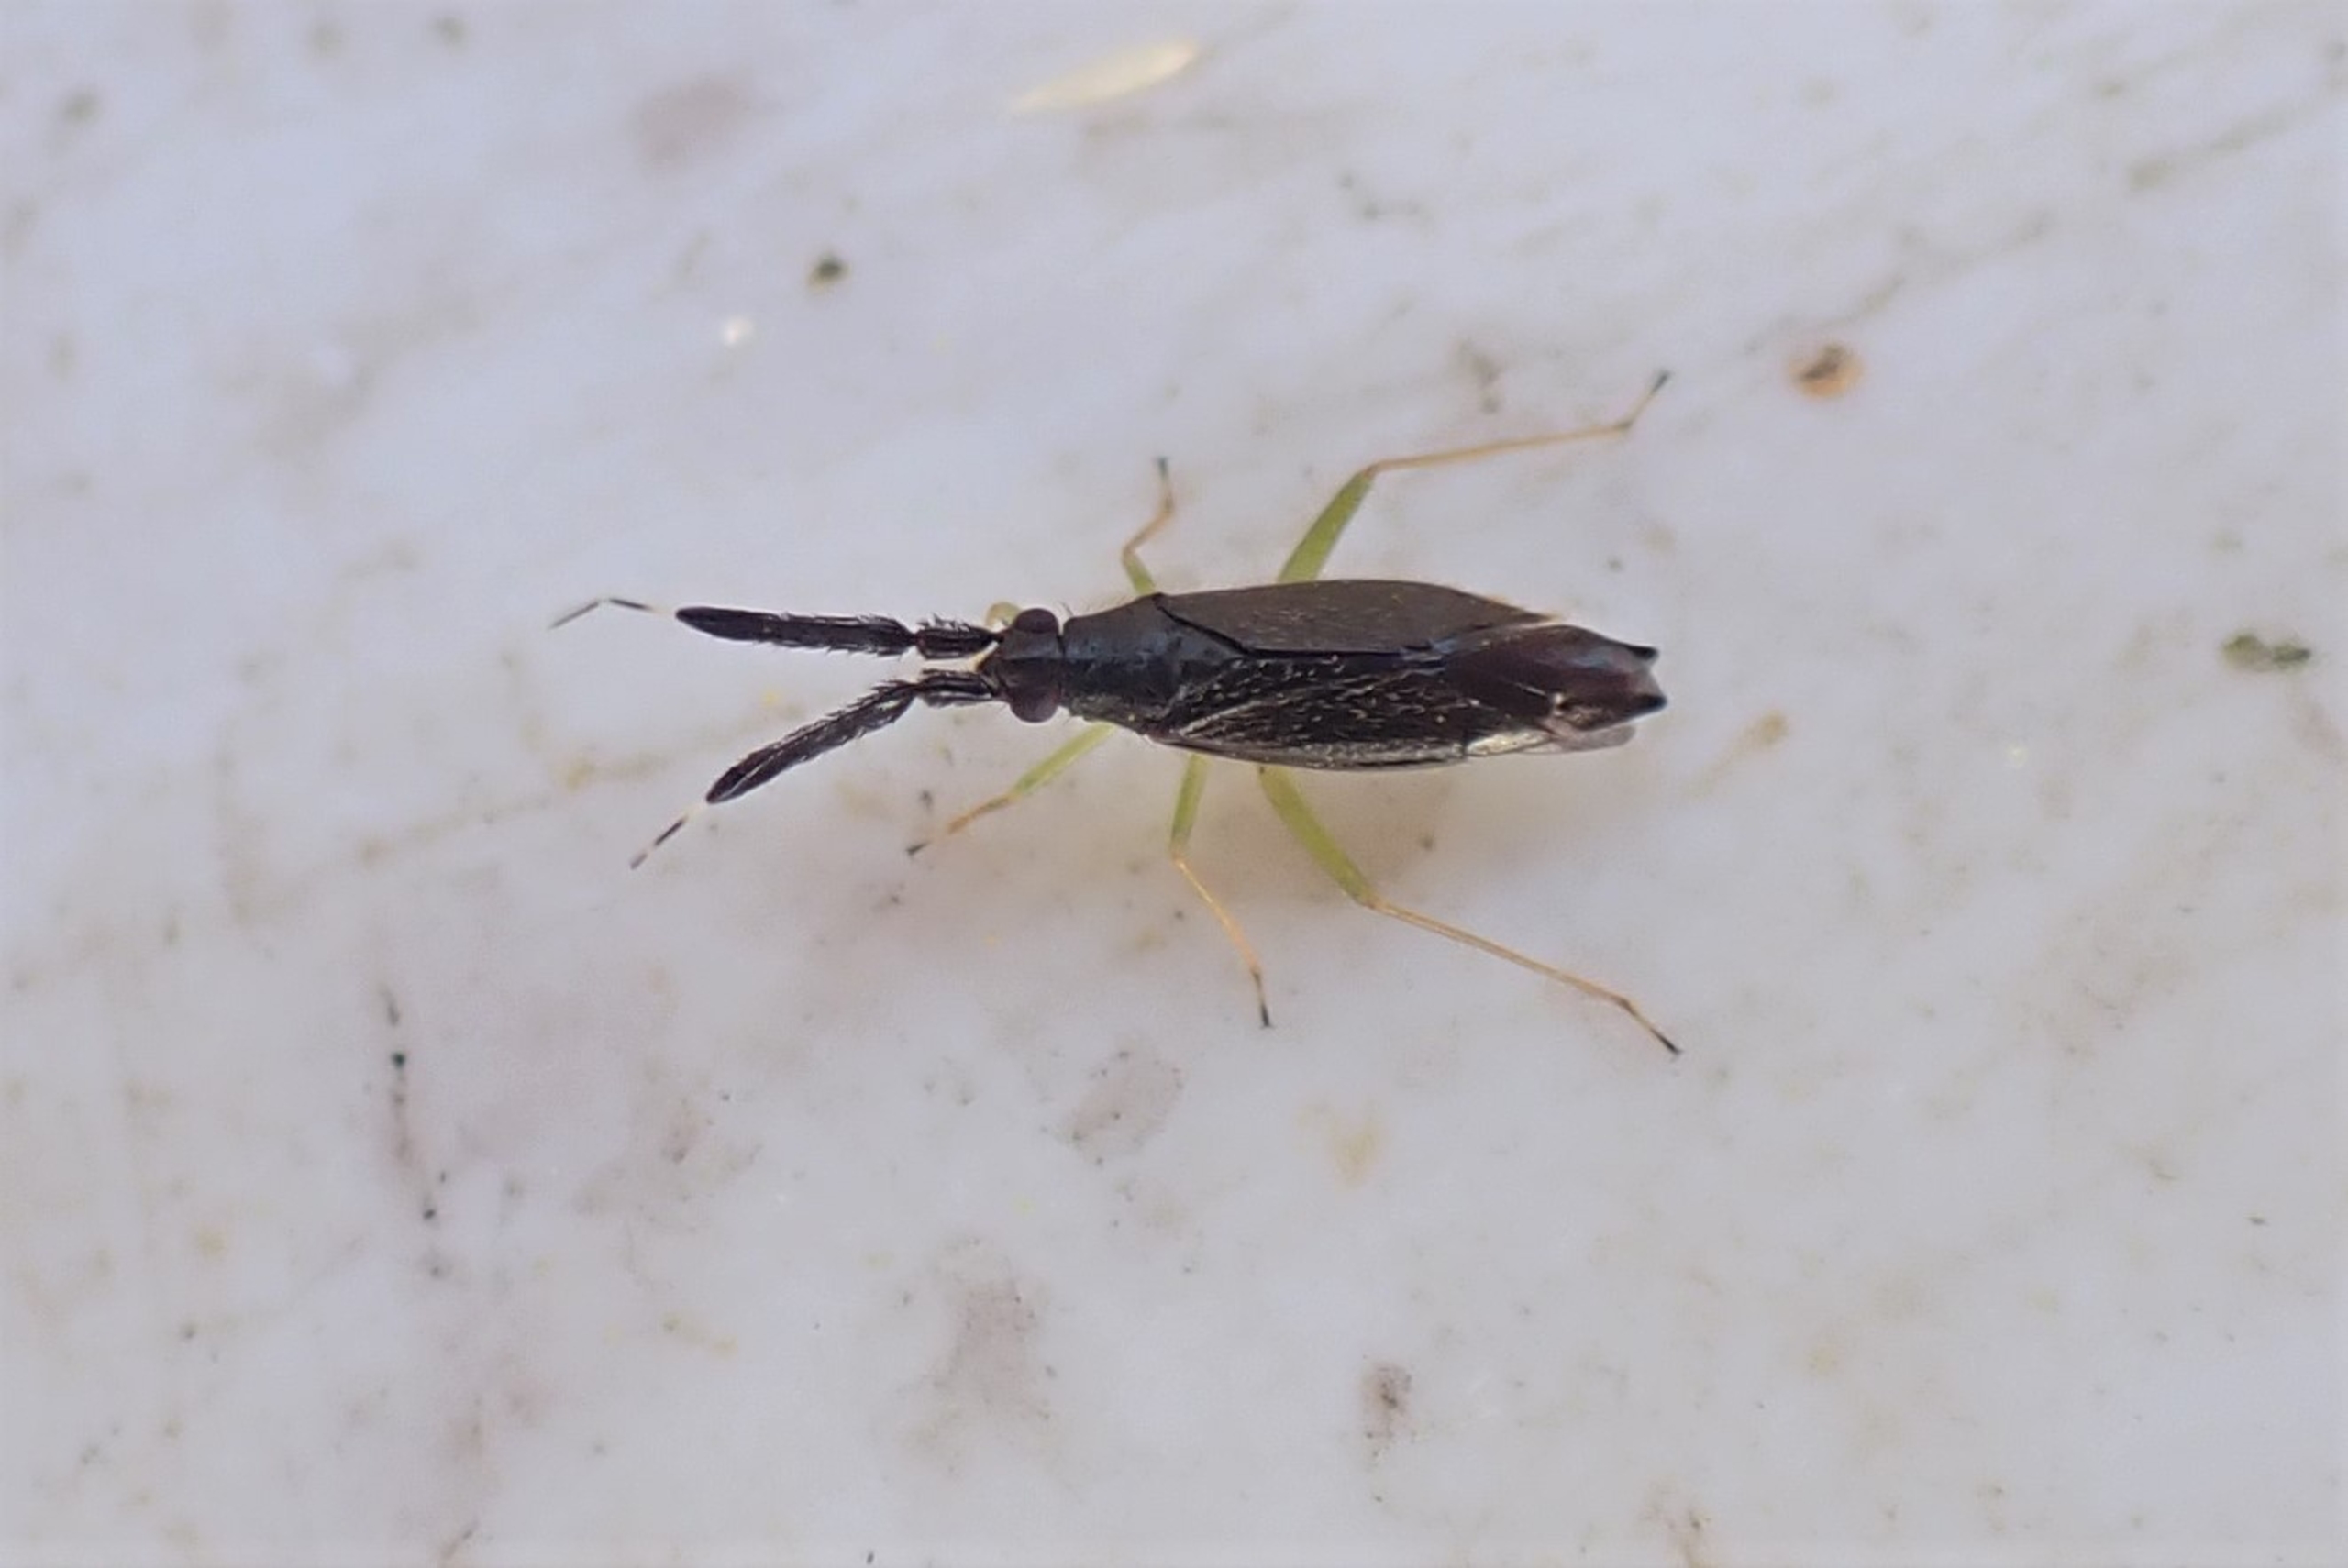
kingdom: Animalia
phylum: Arthropoda
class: Insecta
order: Hemiptera
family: Miridae
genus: Heterotoma
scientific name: Heterotoma planicornis
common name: Køllehornet blomstertæge
